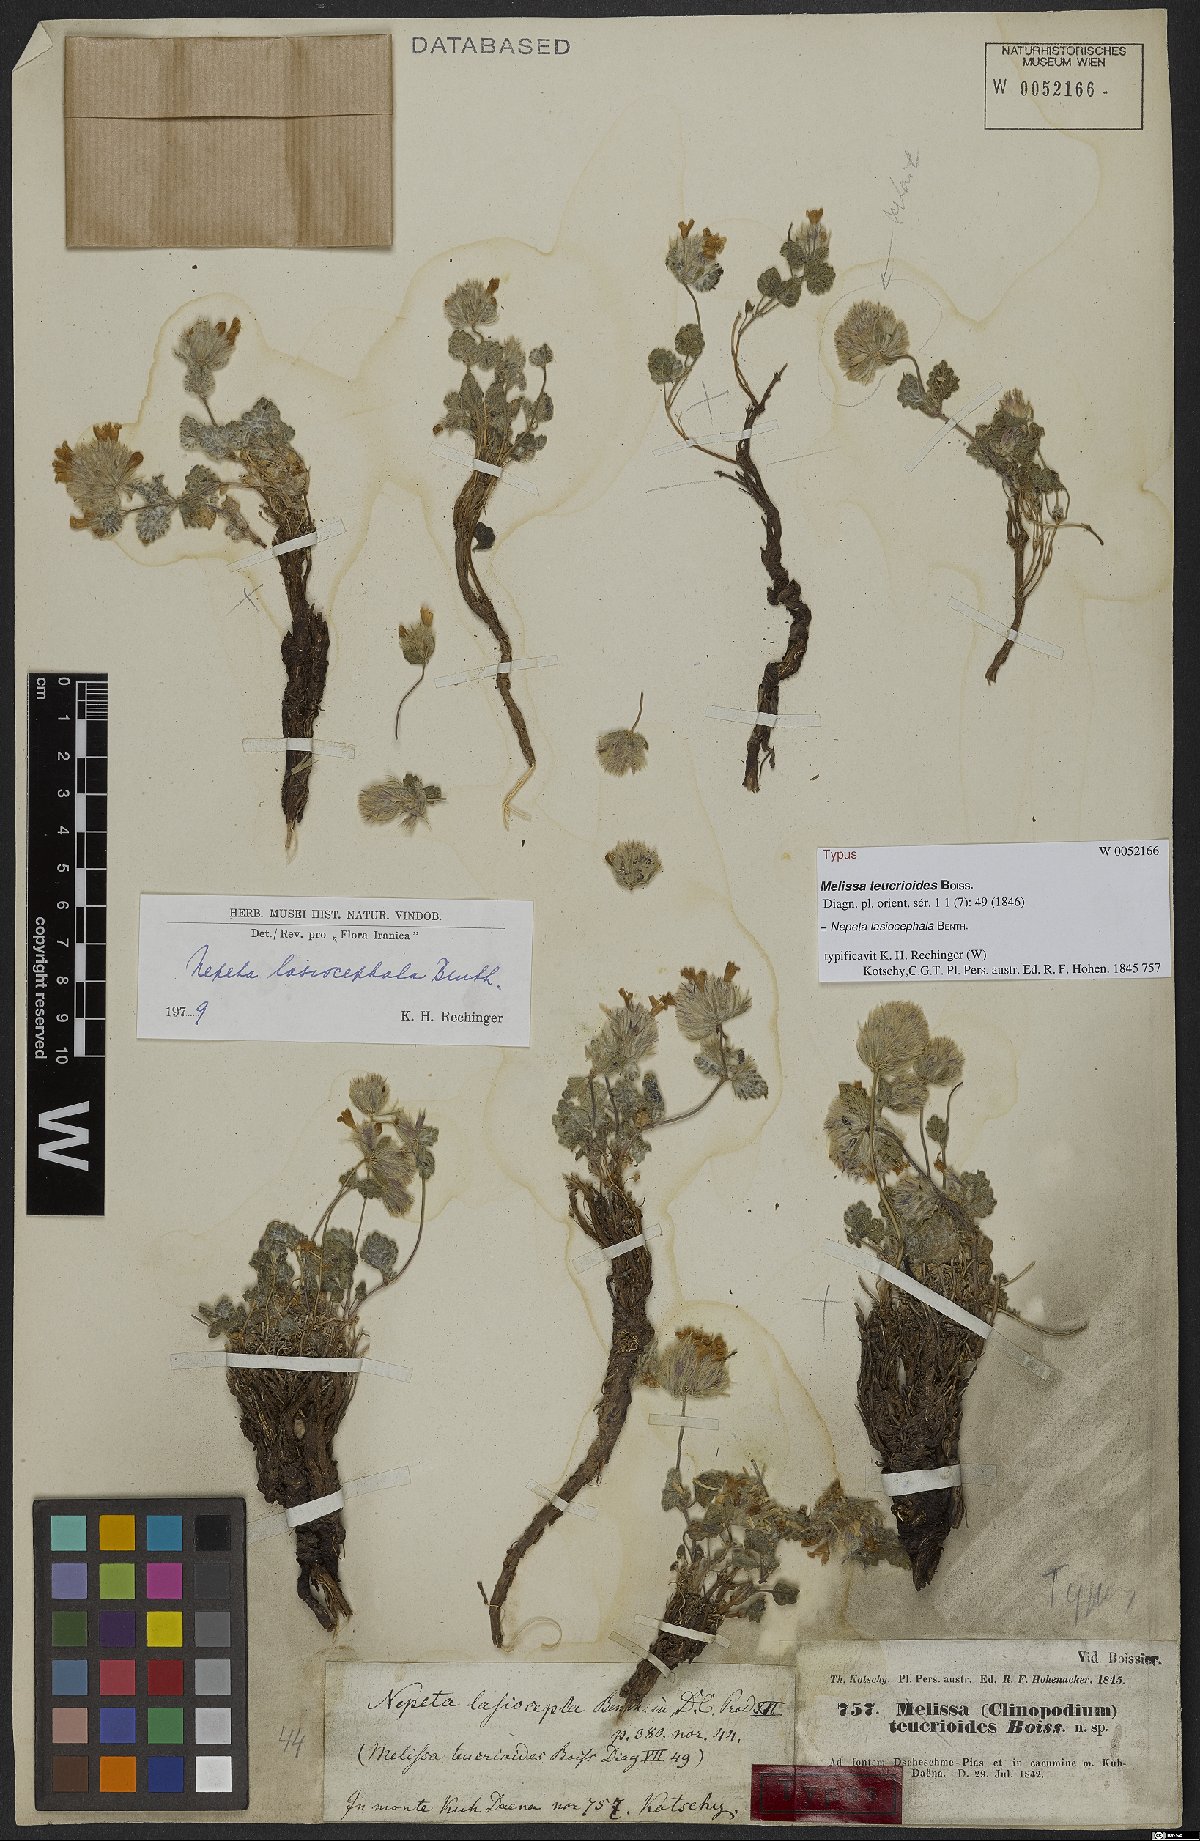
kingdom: Plantae
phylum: Tracheophyta
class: Magnoliopsida
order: Lamiales
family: Lamiaceae
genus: Nepeta
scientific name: Nepeta lasiocephala
